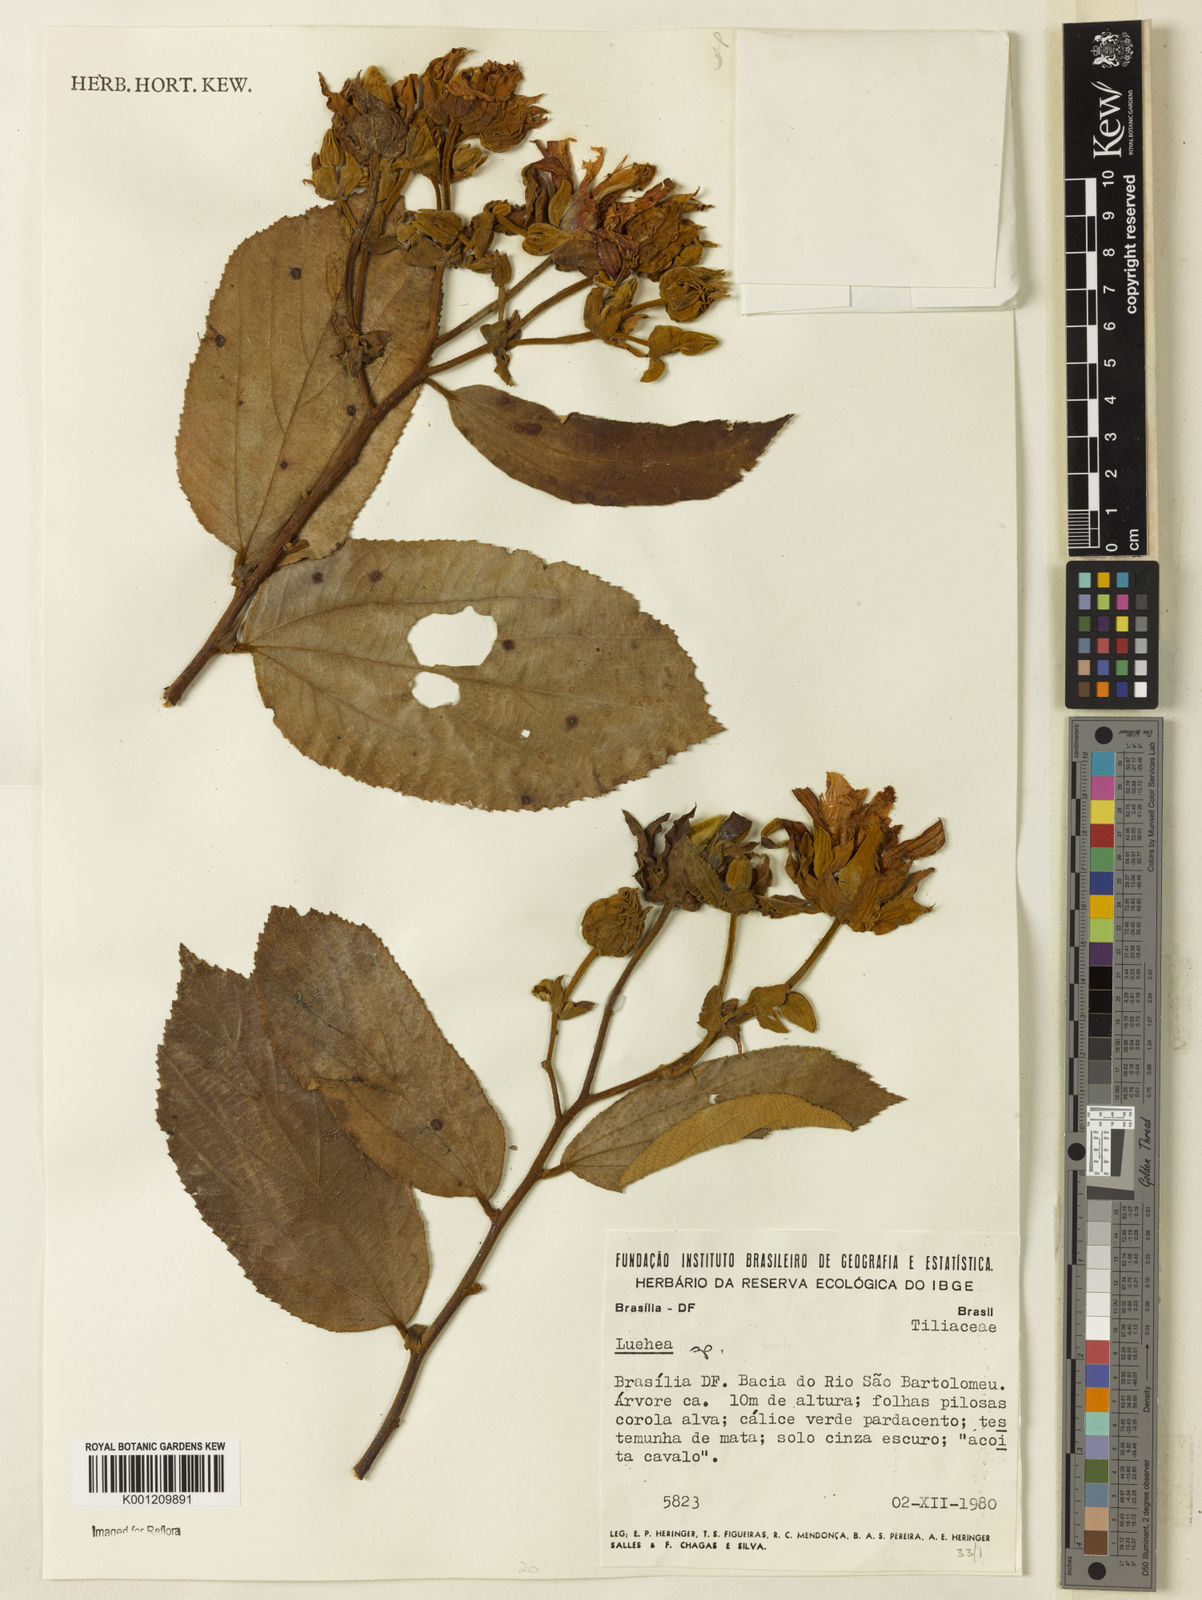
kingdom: Plantae
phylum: Tracheophyta
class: Magnoliopsida
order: Malvales
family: Malvaceae
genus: Luehea
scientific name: Luehea
